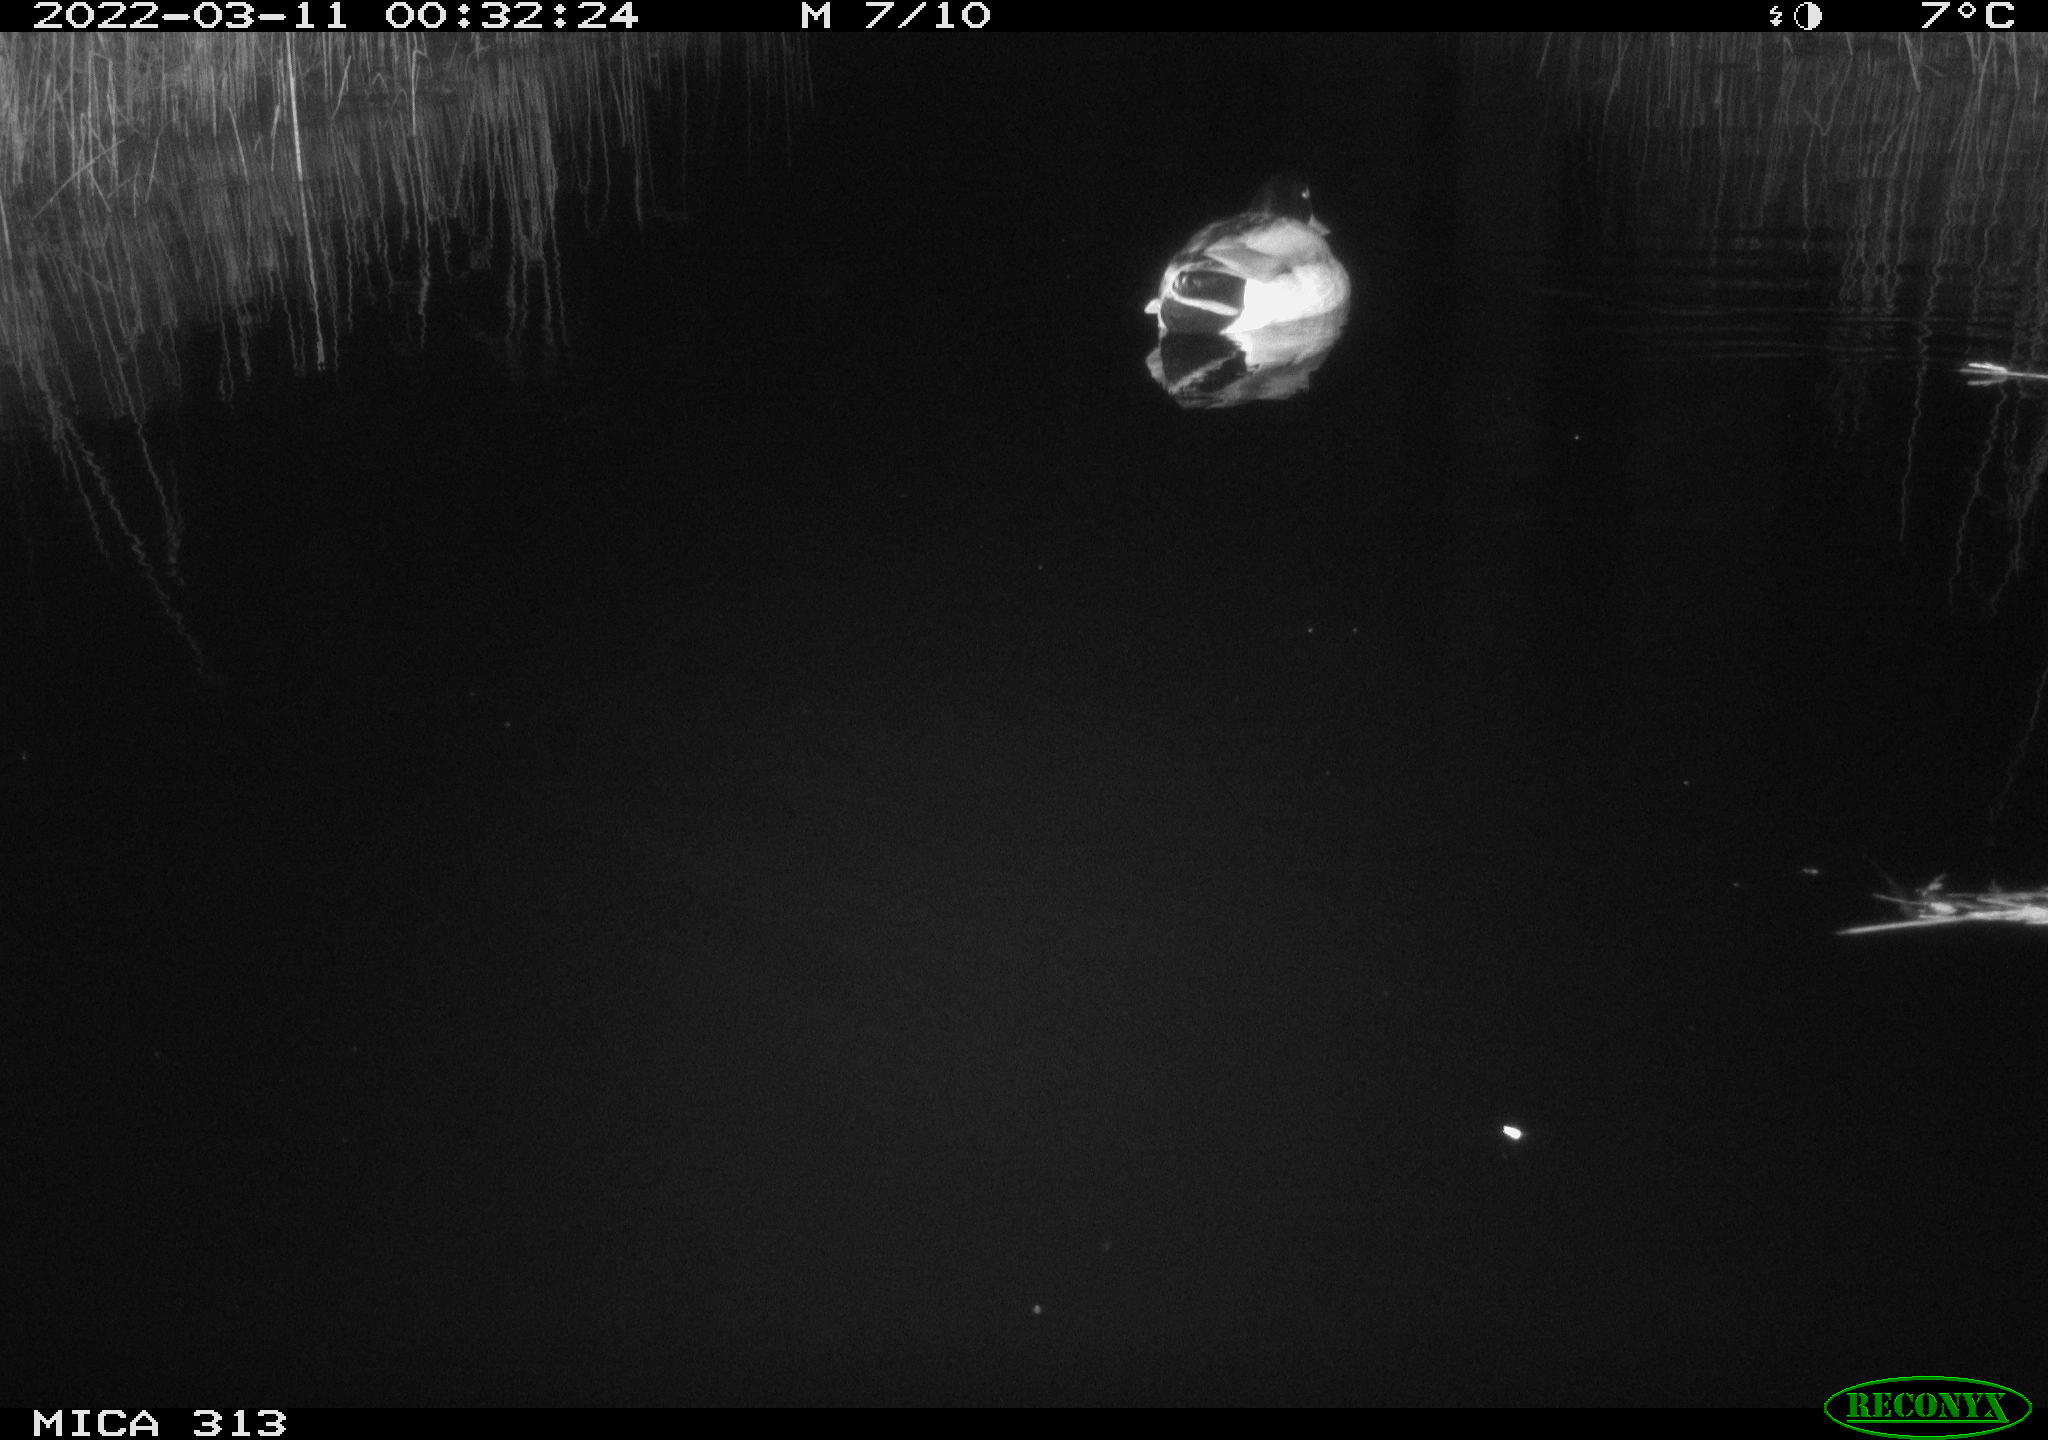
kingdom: Animalia
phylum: Chordata
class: Aves
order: Anseriformes
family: Anatidae
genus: Anas
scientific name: Anas platyrhynchos
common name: Mallard
